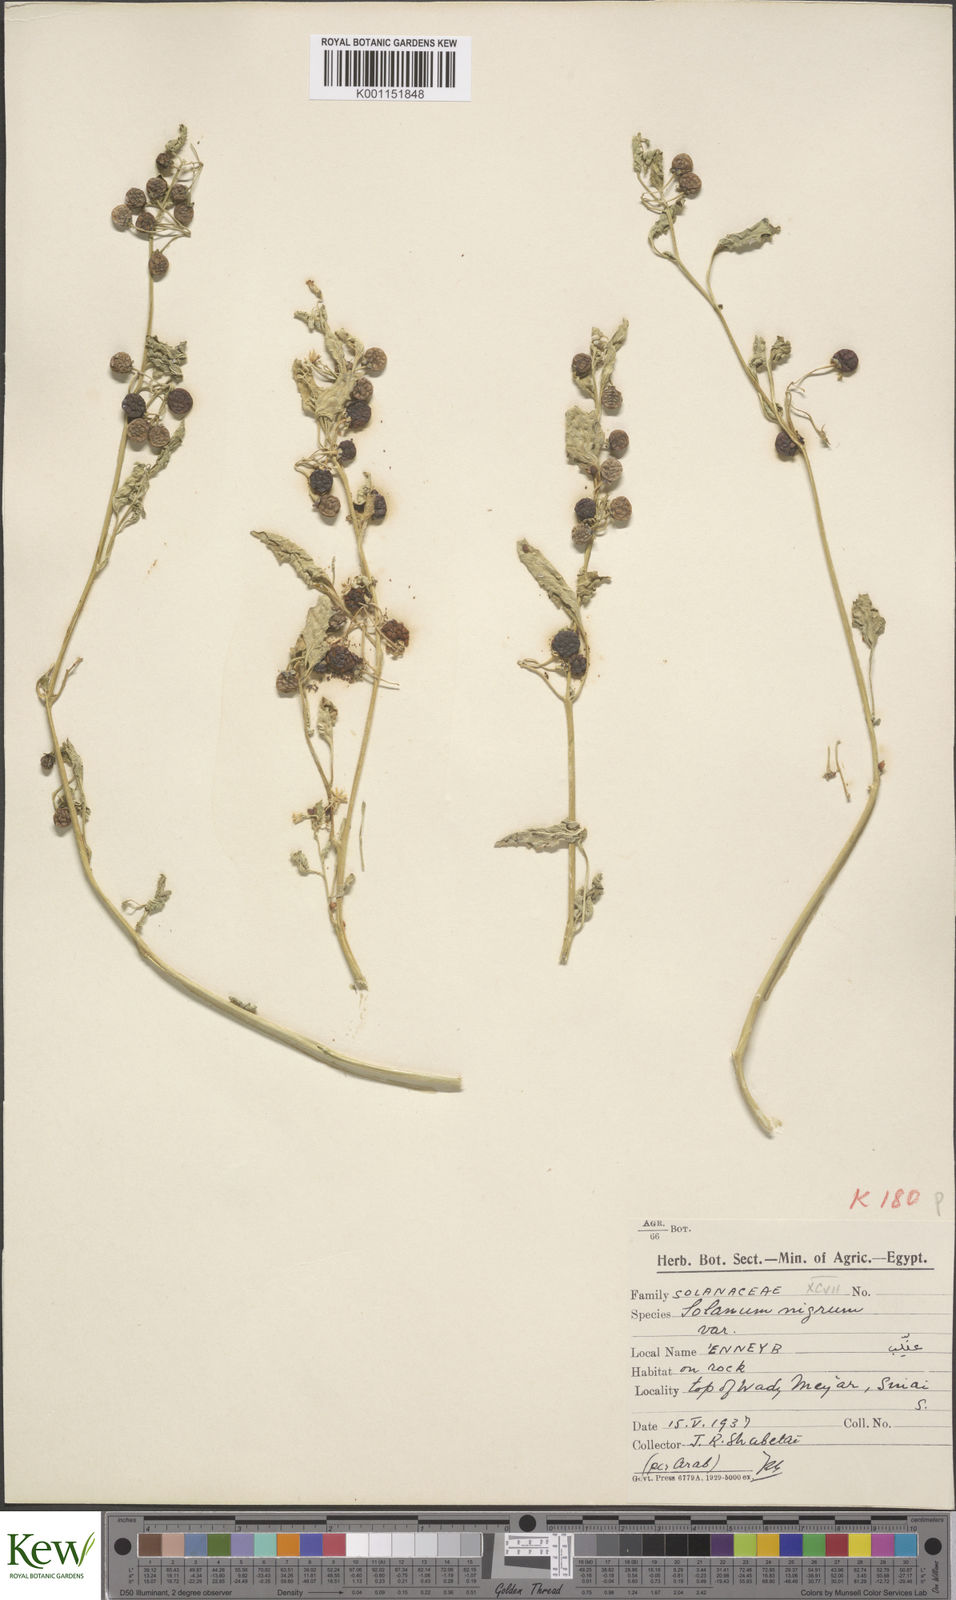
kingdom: Plantae
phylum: Tracheophyta
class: Magnoliopsida
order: Solanales
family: Solanaceae
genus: Solanum
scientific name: Solanum alatum
